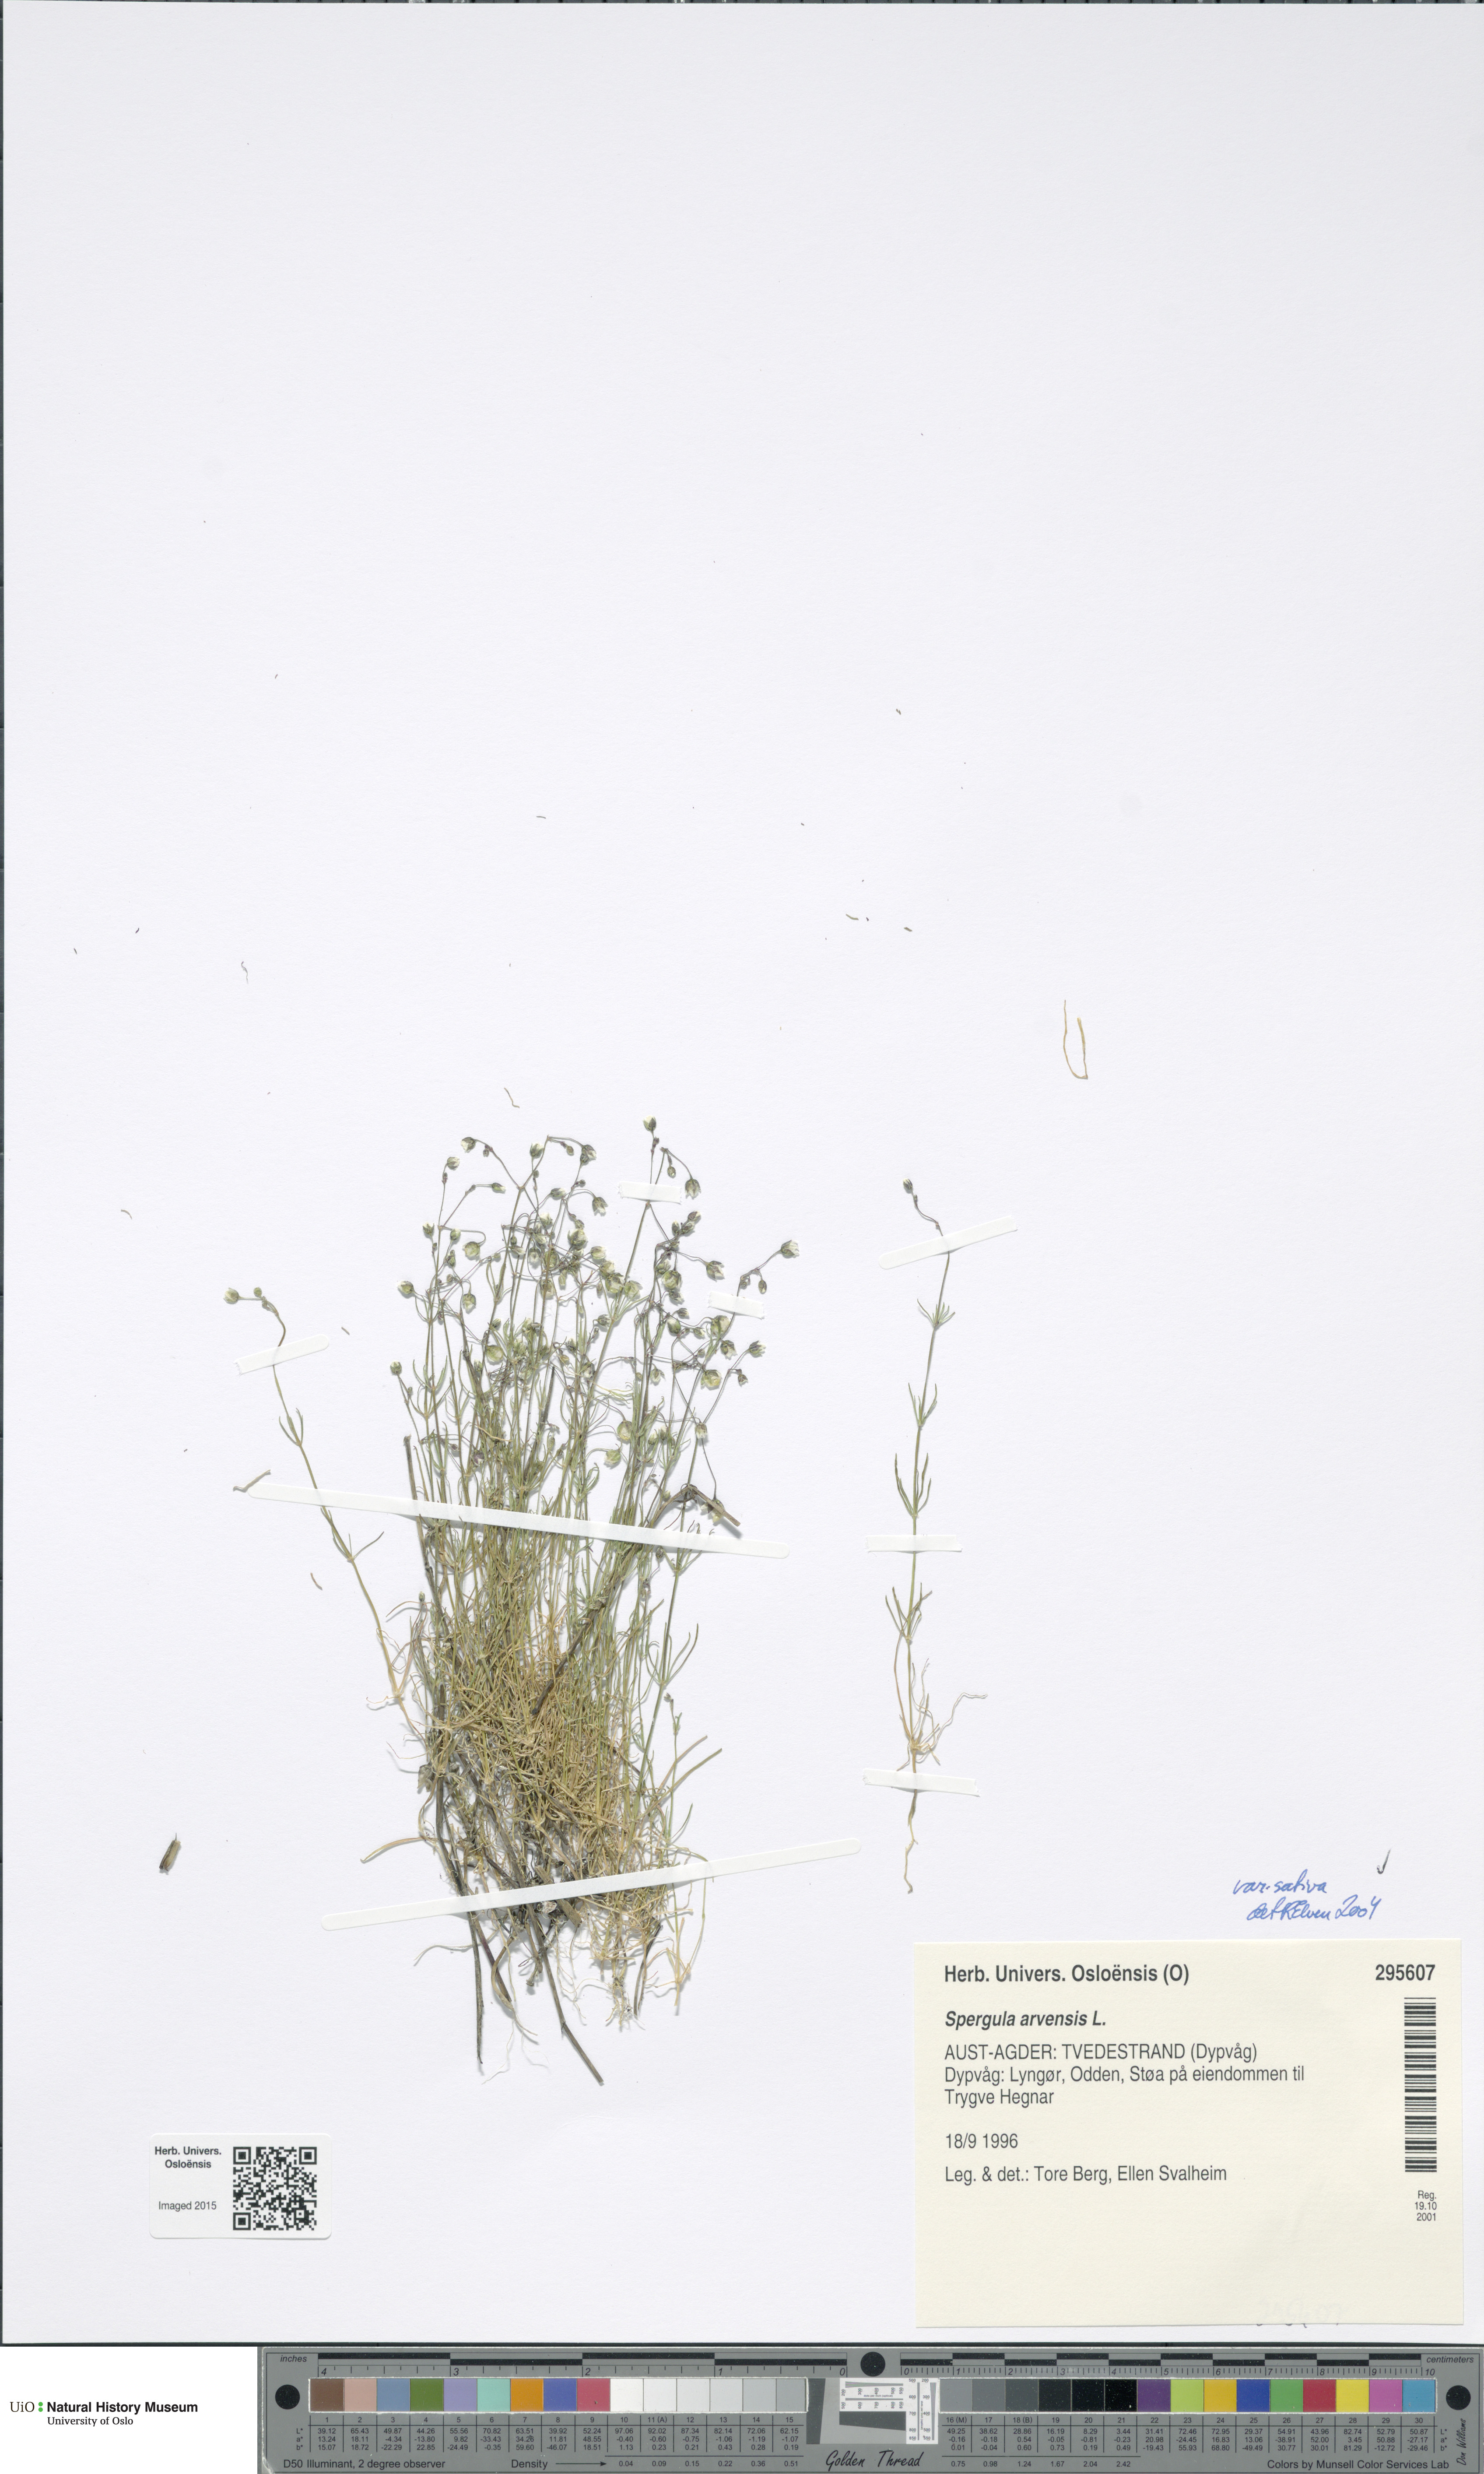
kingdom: Plantae
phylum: Tracheophyta
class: Magnoliopsida
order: Caryophyllales
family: Caryophyllaceae
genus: Spergula
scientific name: Spergula arvensis
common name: Corn spurrey
